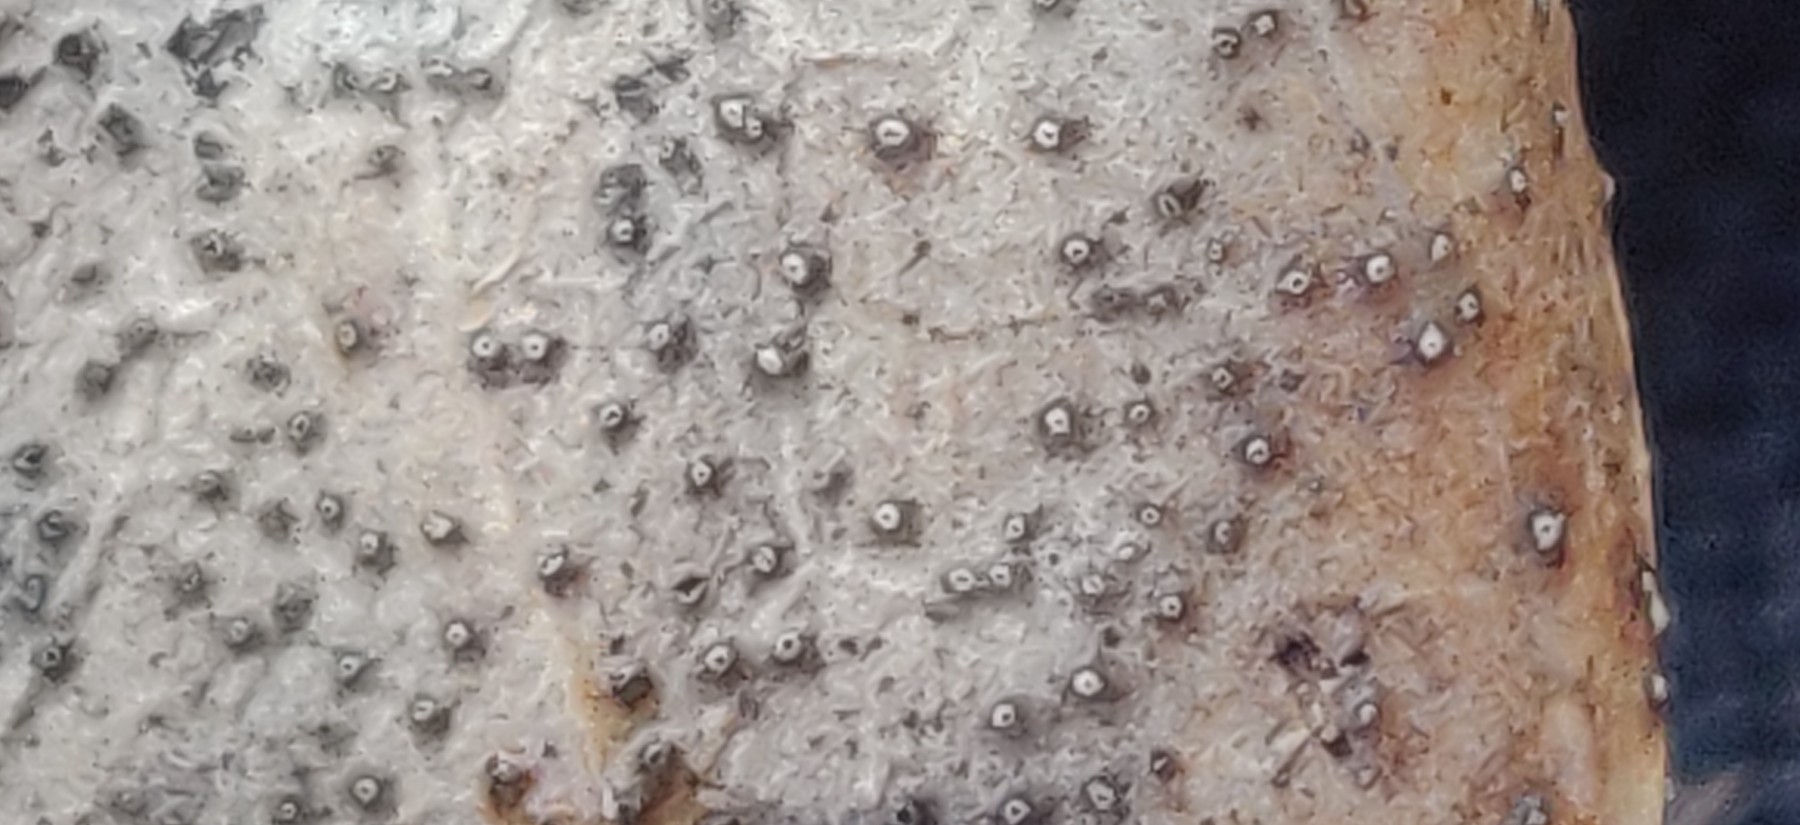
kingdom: Fungi
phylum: Ascomycota
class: Leotiomycetes
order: Helotiales
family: Cenangiaceae
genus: Trochila
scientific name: Trochila craterium
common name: vedbend-lågskive
